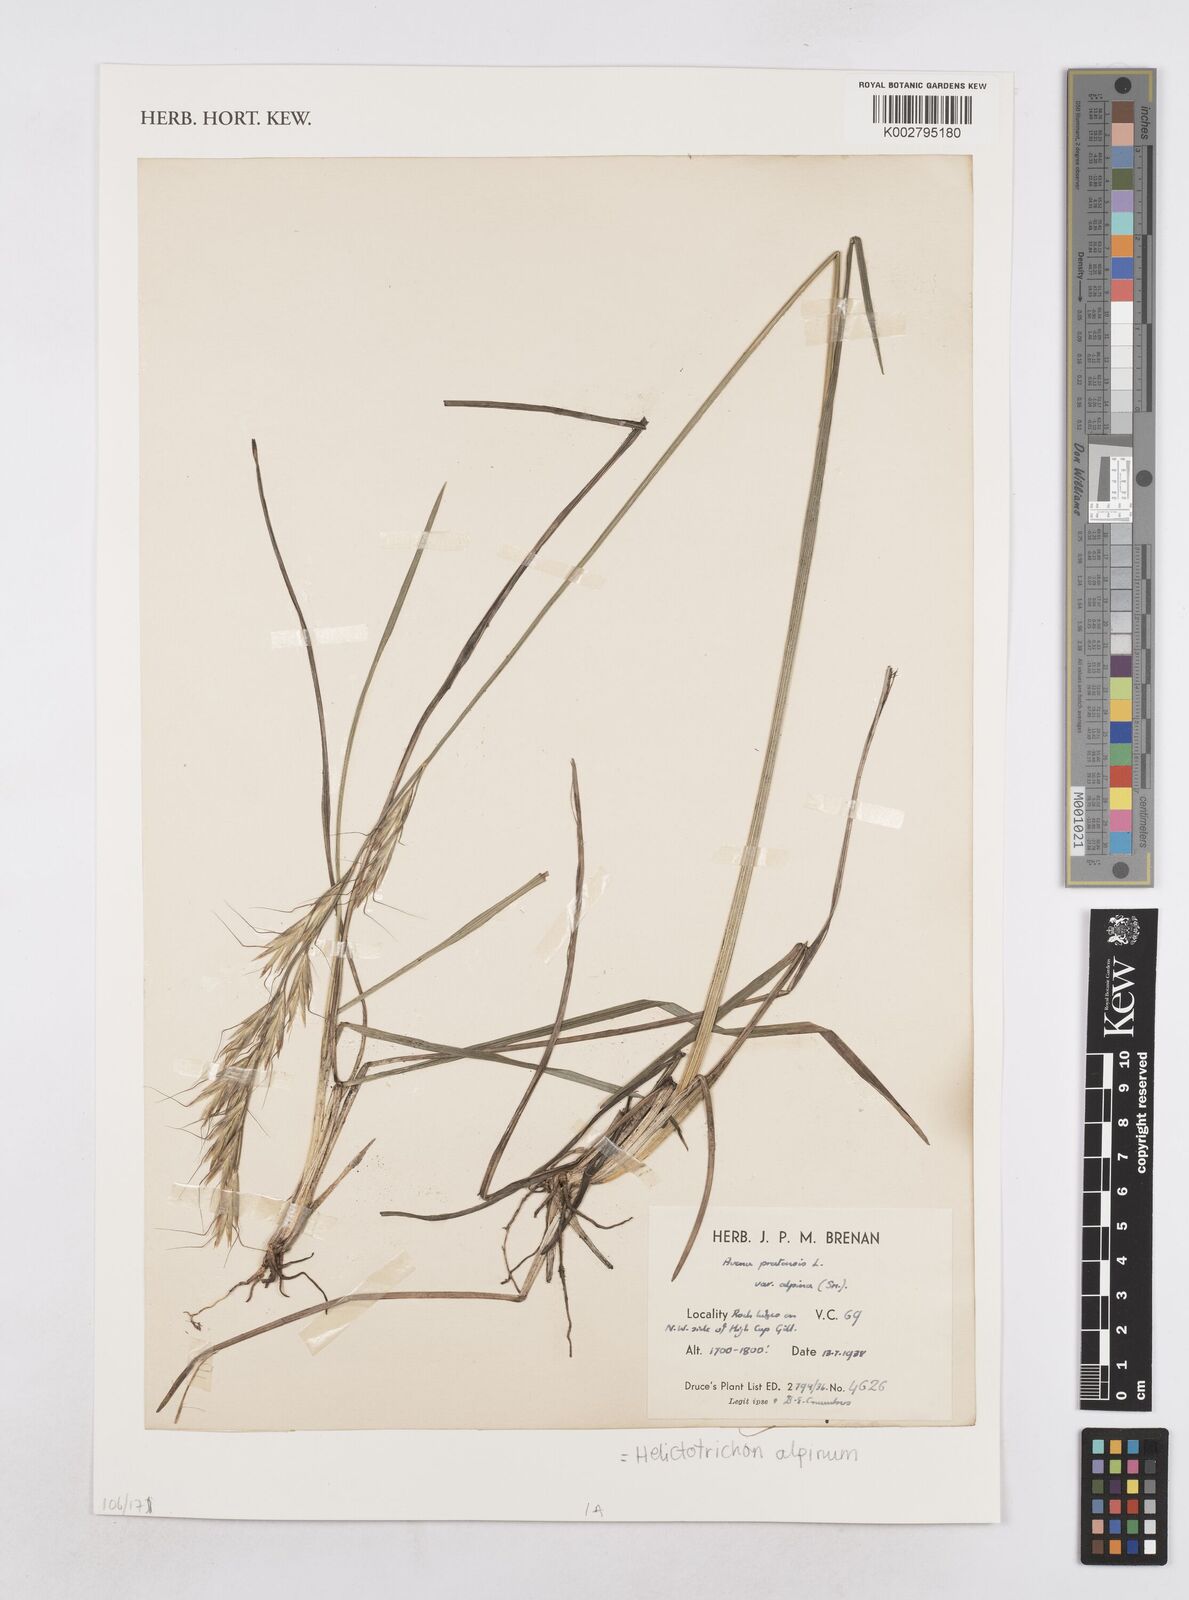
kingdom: Plantae
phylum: Tracheophyta
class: Liliopsida
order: Poales
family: Poaceae
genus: Helictochloa
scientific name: Helictochloa pratensis
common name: Meadow oat grass
